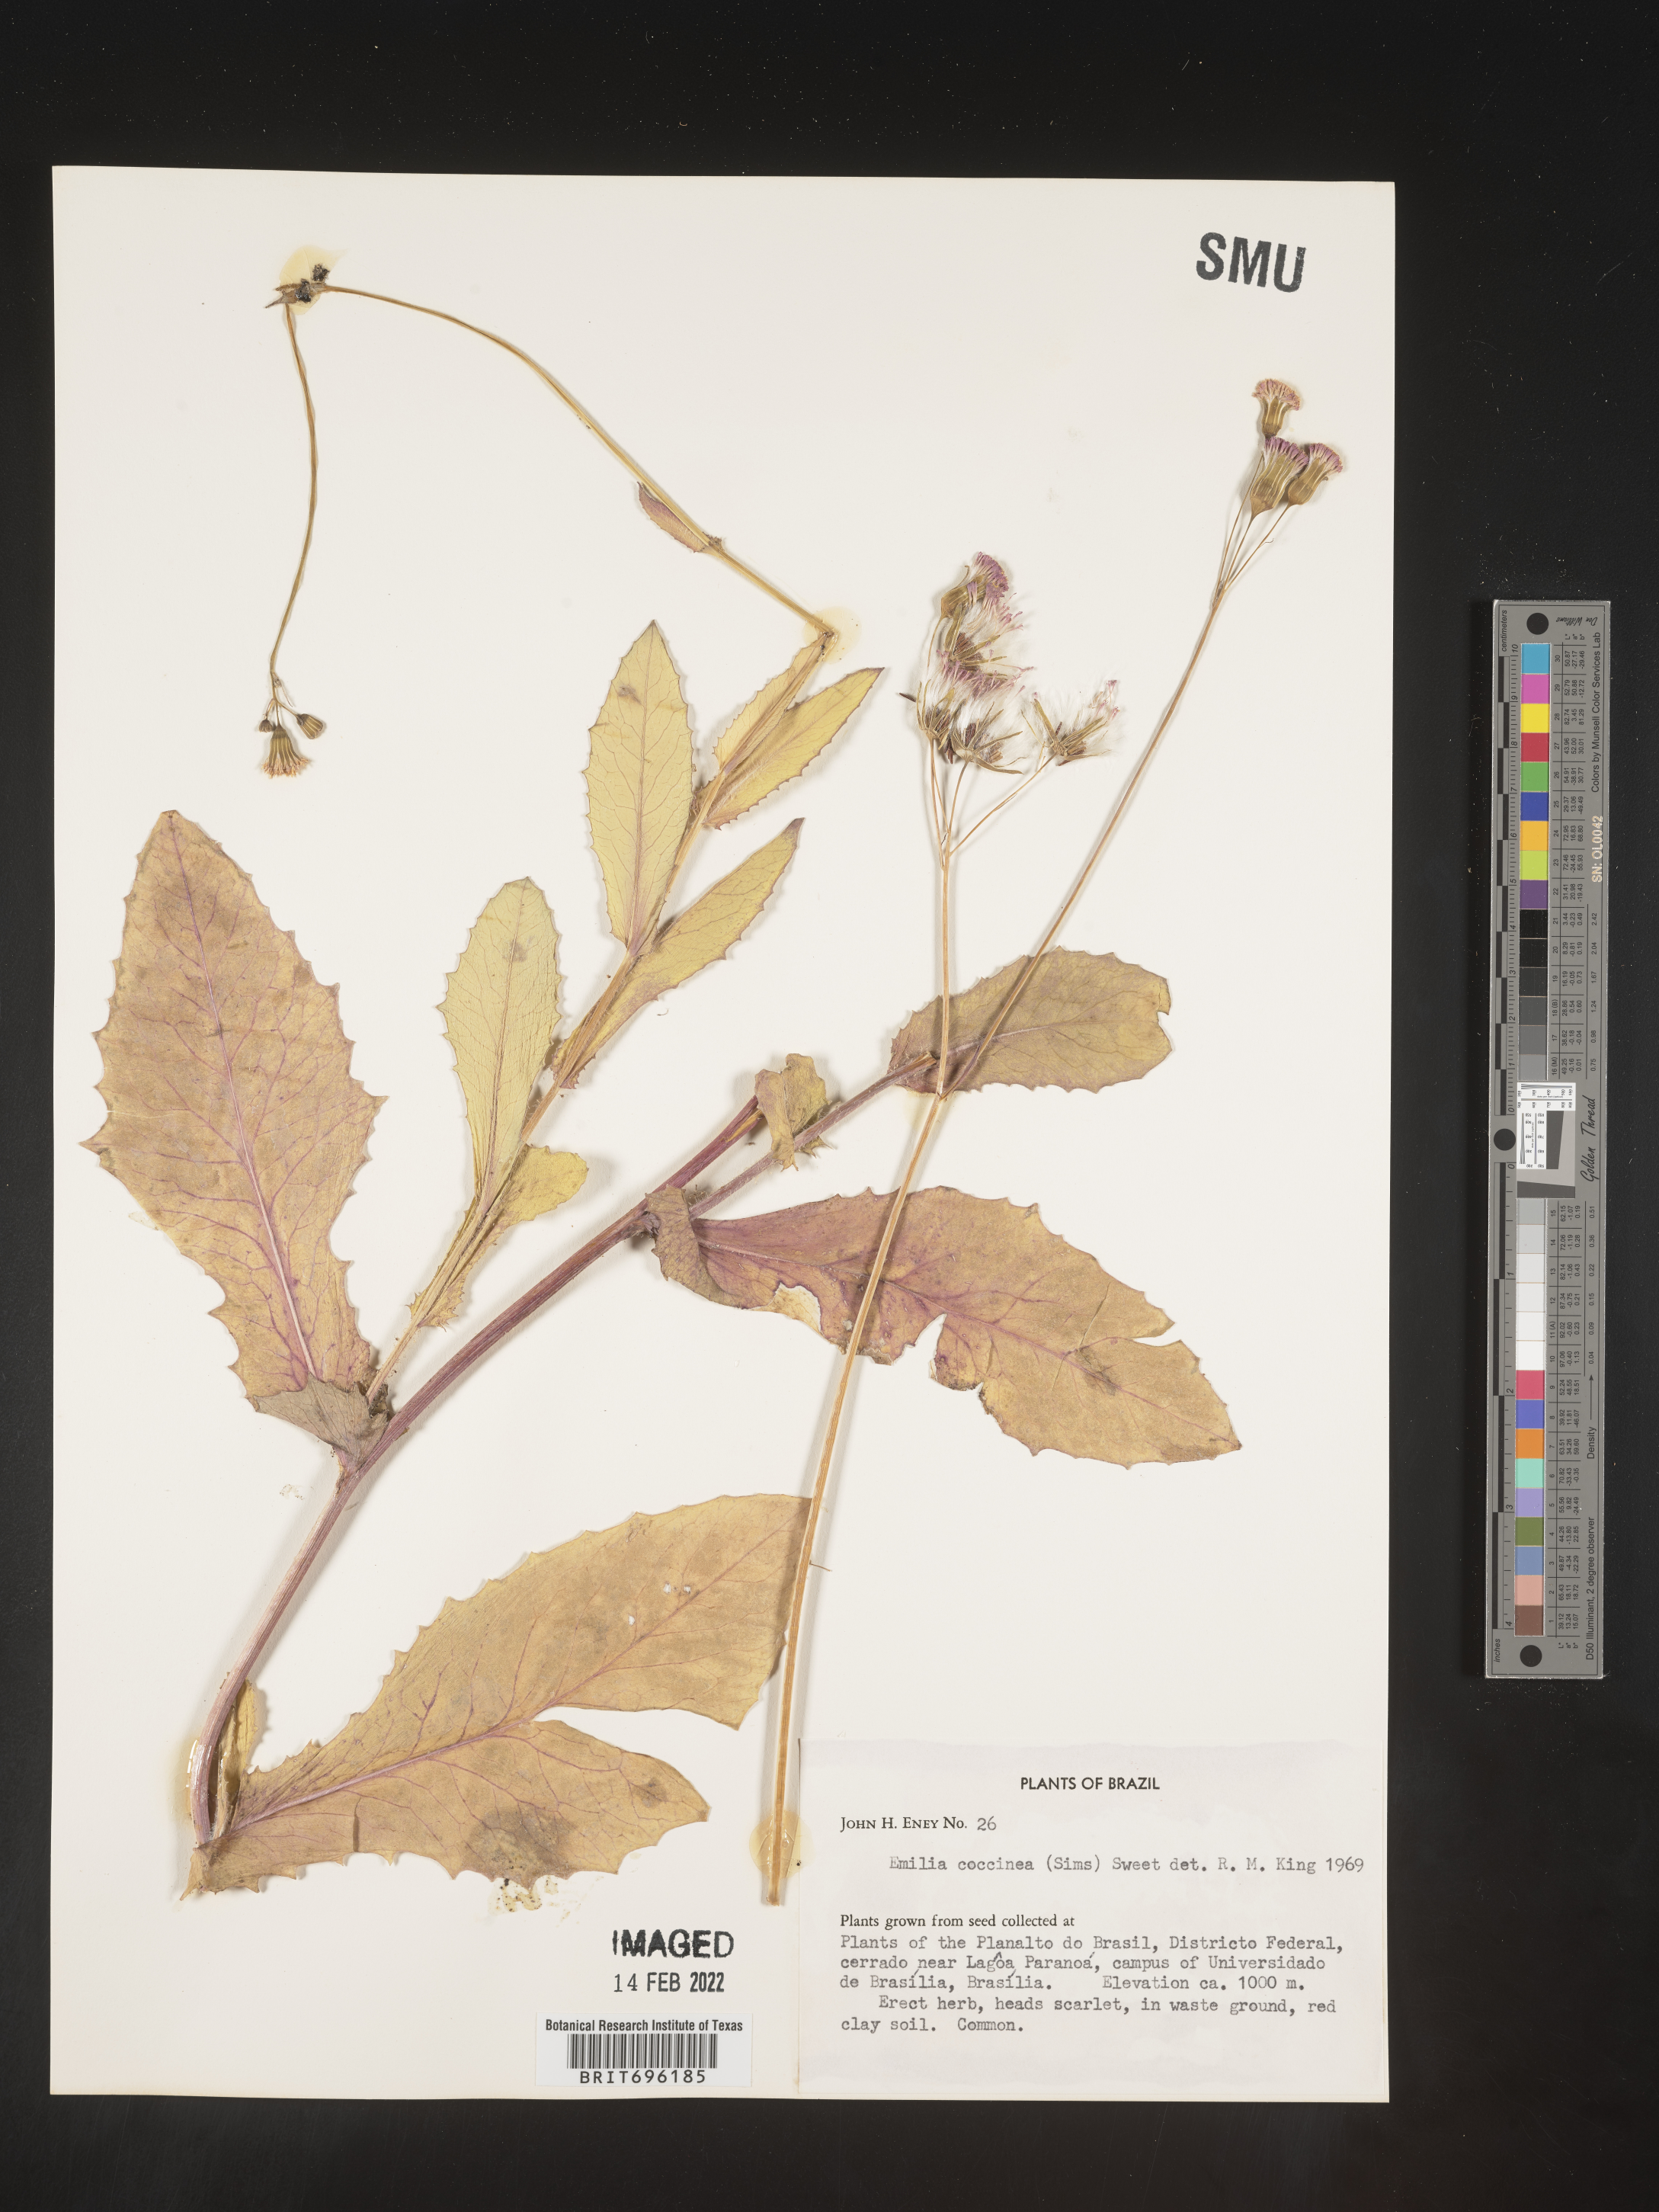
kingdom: Plantae
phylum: Tracheophyta
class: Magnoliopsida
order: Asterales
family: Asteraceae
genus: Emilia
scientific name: Emilia
